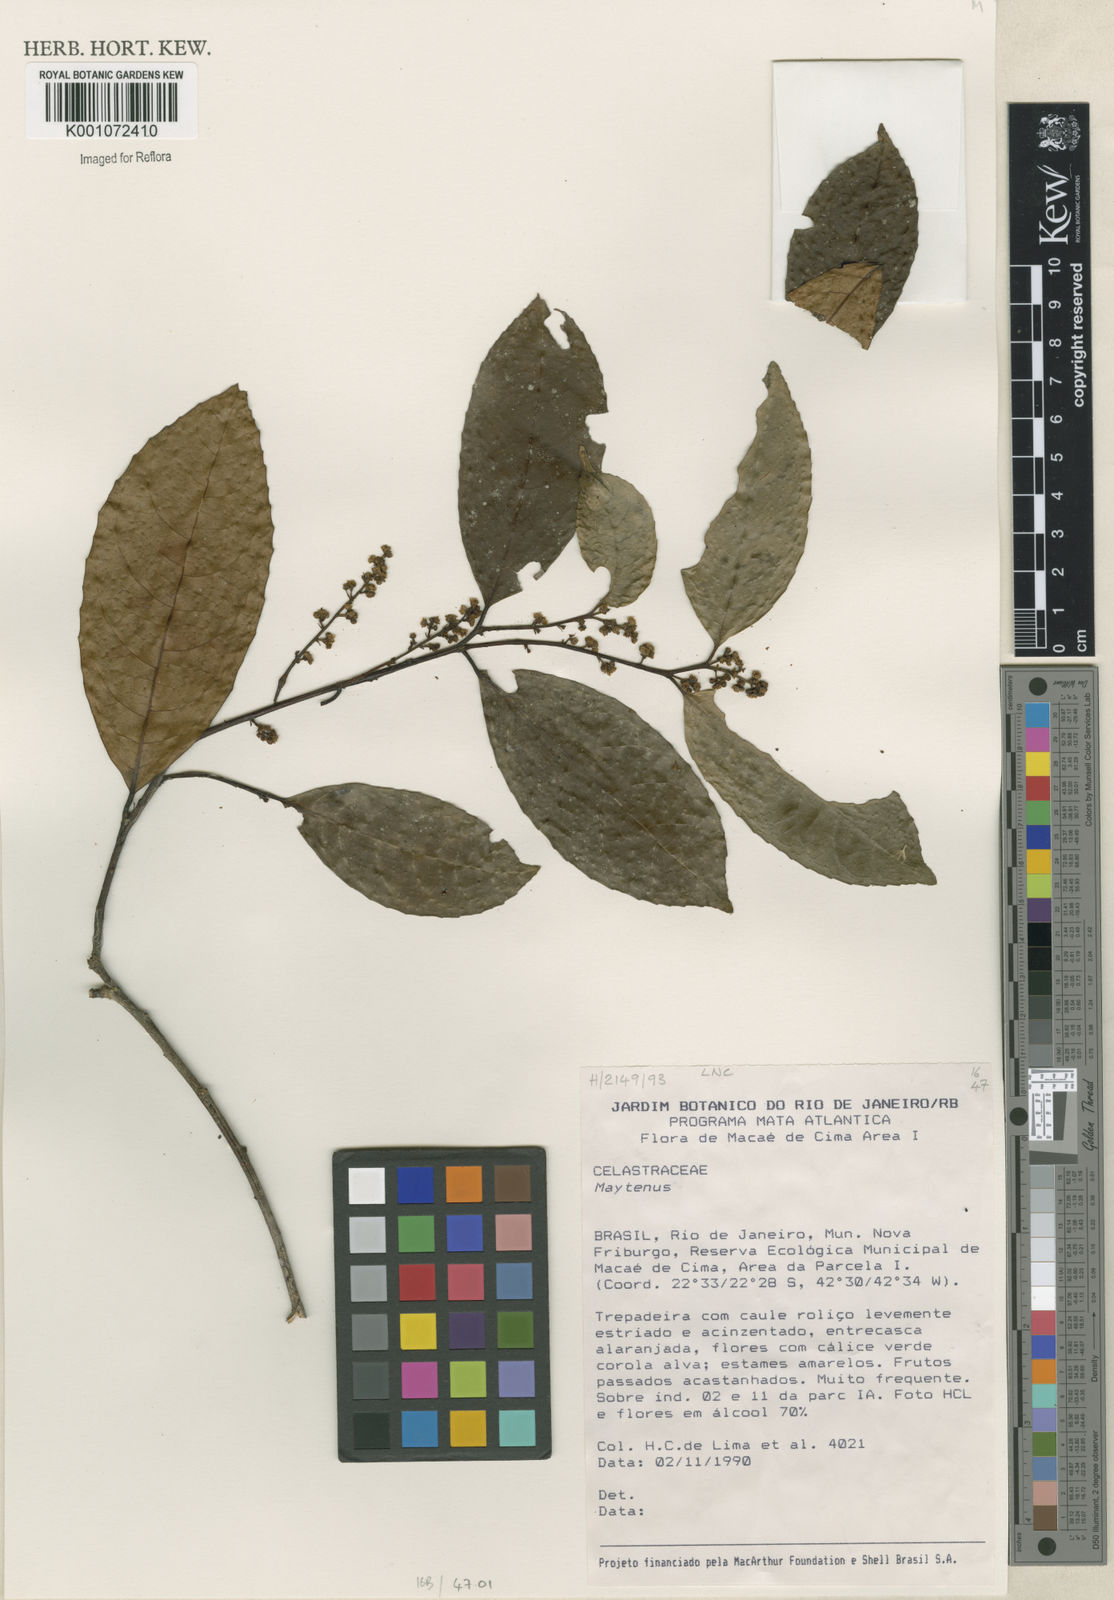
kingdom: Plantae
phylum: Tracheophyta
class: Magnoliopsida
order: Celastrales
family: Celastraceae
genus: Maytenus
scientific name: Maytenus
